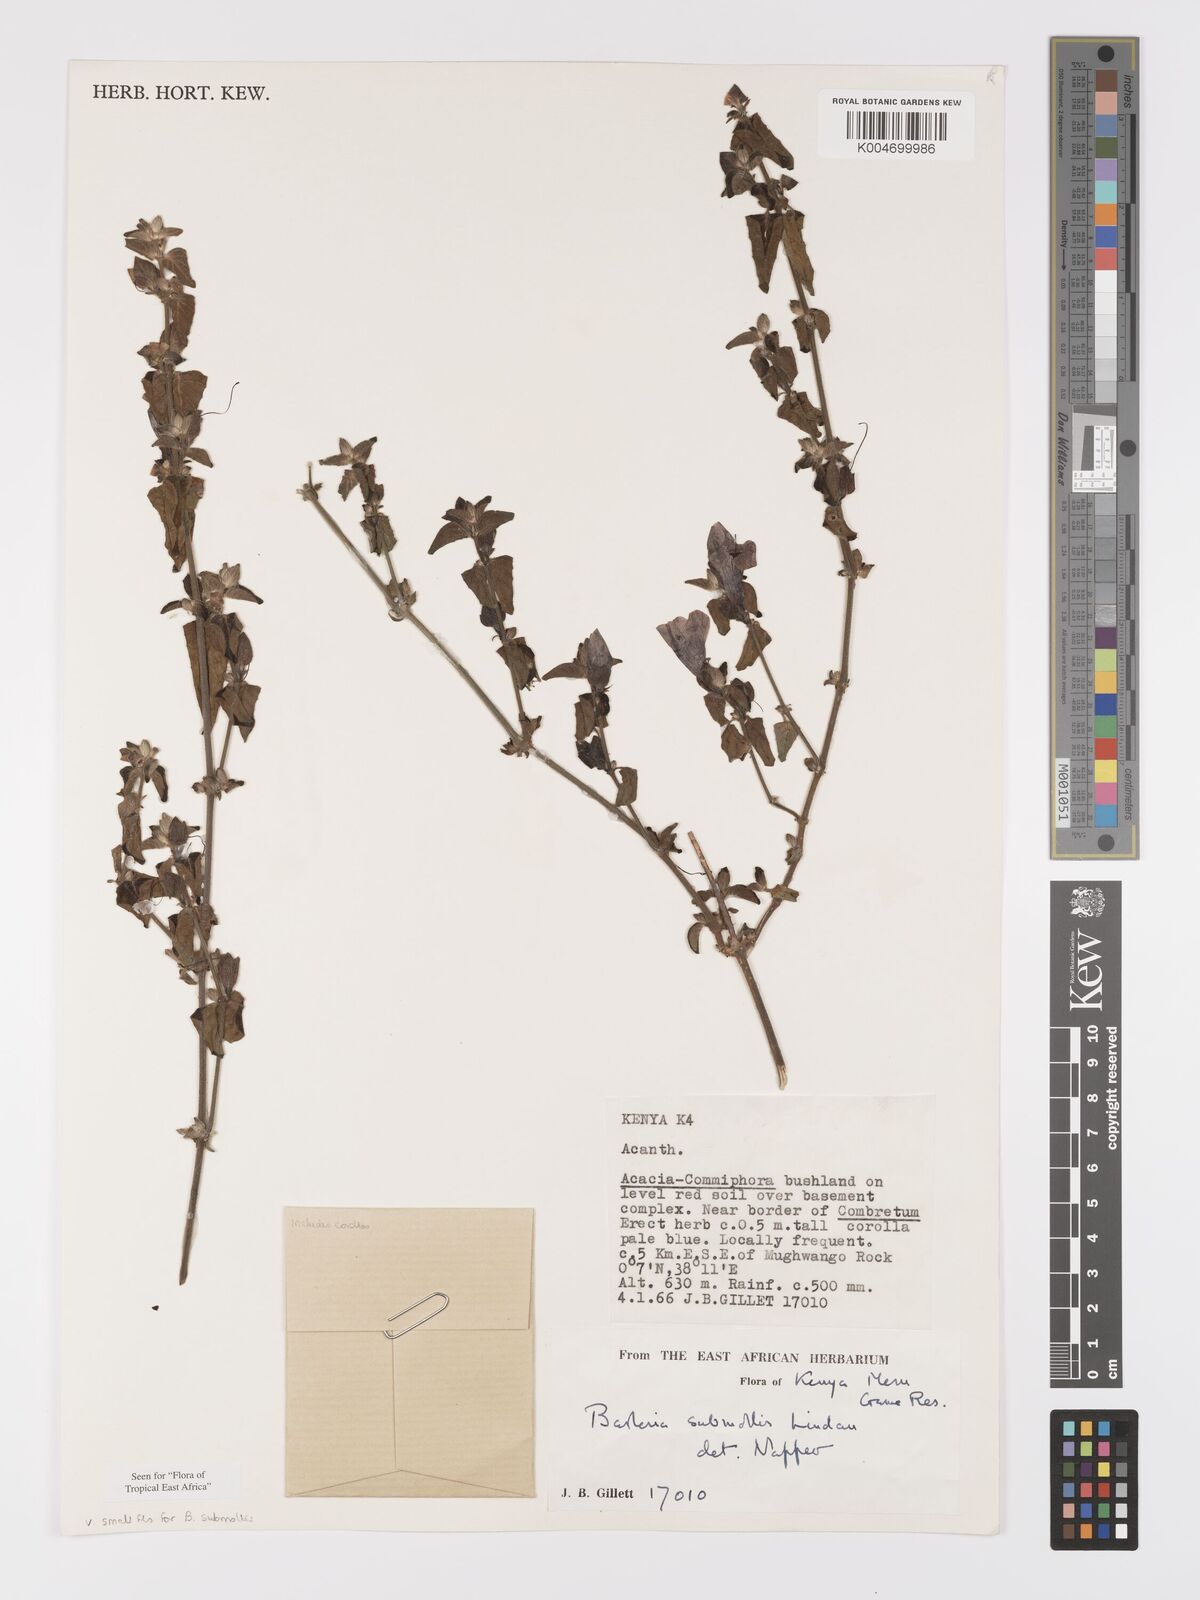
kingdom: Plantae
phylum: Tracheophyta
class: Magnoliopsida
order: Lamiales
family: Acanthaceae
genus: Barleria
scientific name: Barleria submollis
